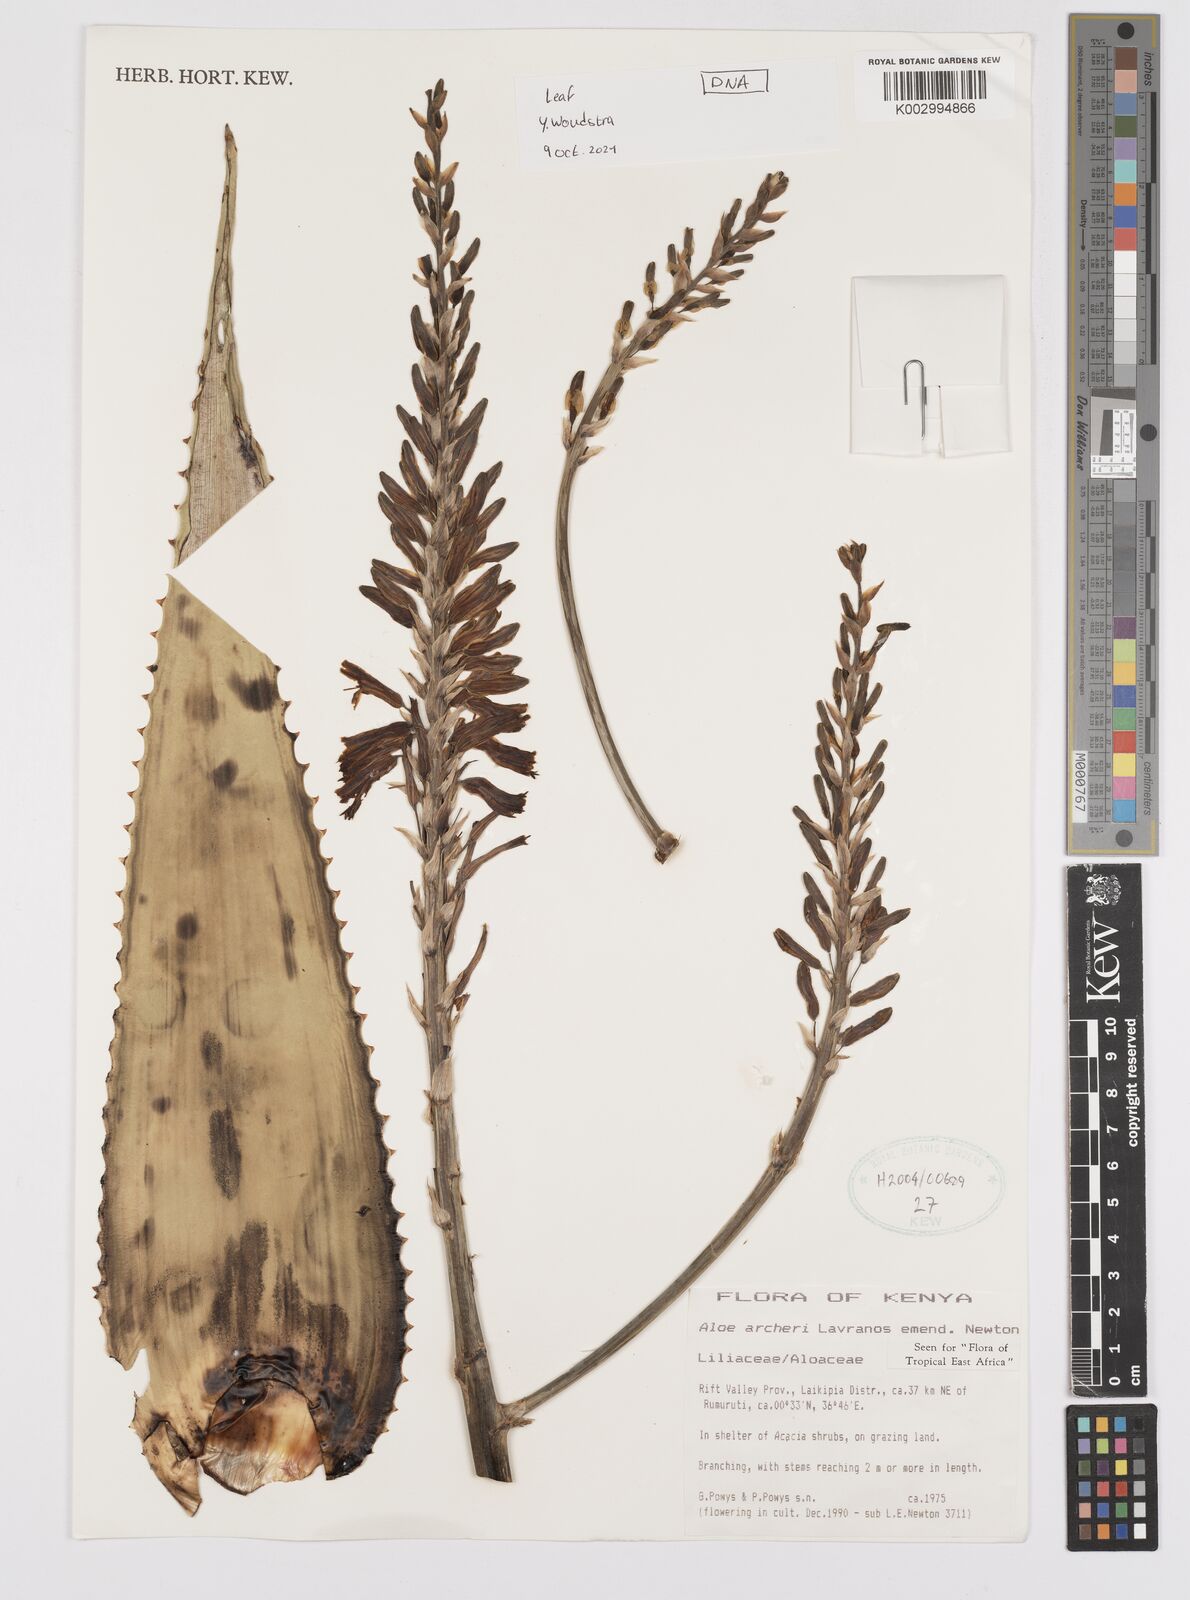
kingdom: Plantae
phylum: Tracheophyta
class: Liliopsida
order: Asparagales
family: Asphodelaceae
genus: Aloe
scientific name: Aloe archeri
